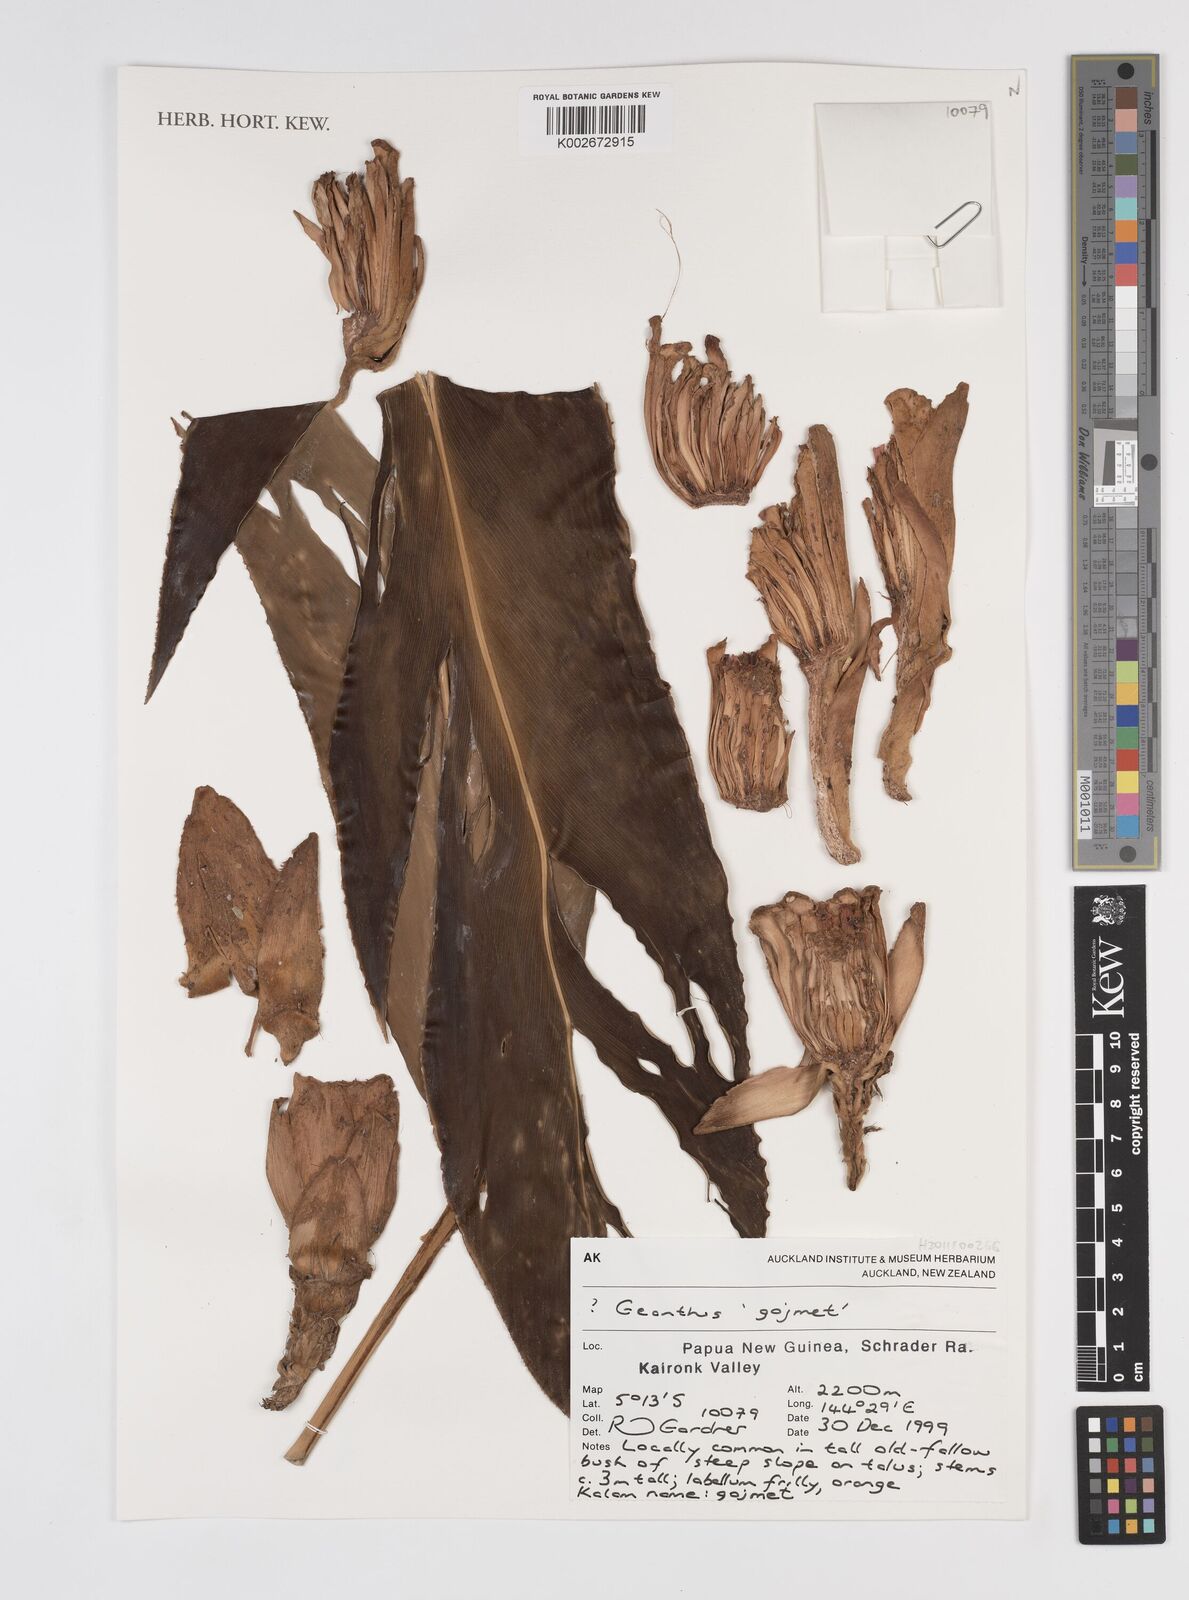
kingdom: Plantae
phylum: Tracheophyta
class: Liliopsida
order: Zingiberales
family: Zingiberaceae
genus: Etlingera
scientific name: Etlingera
